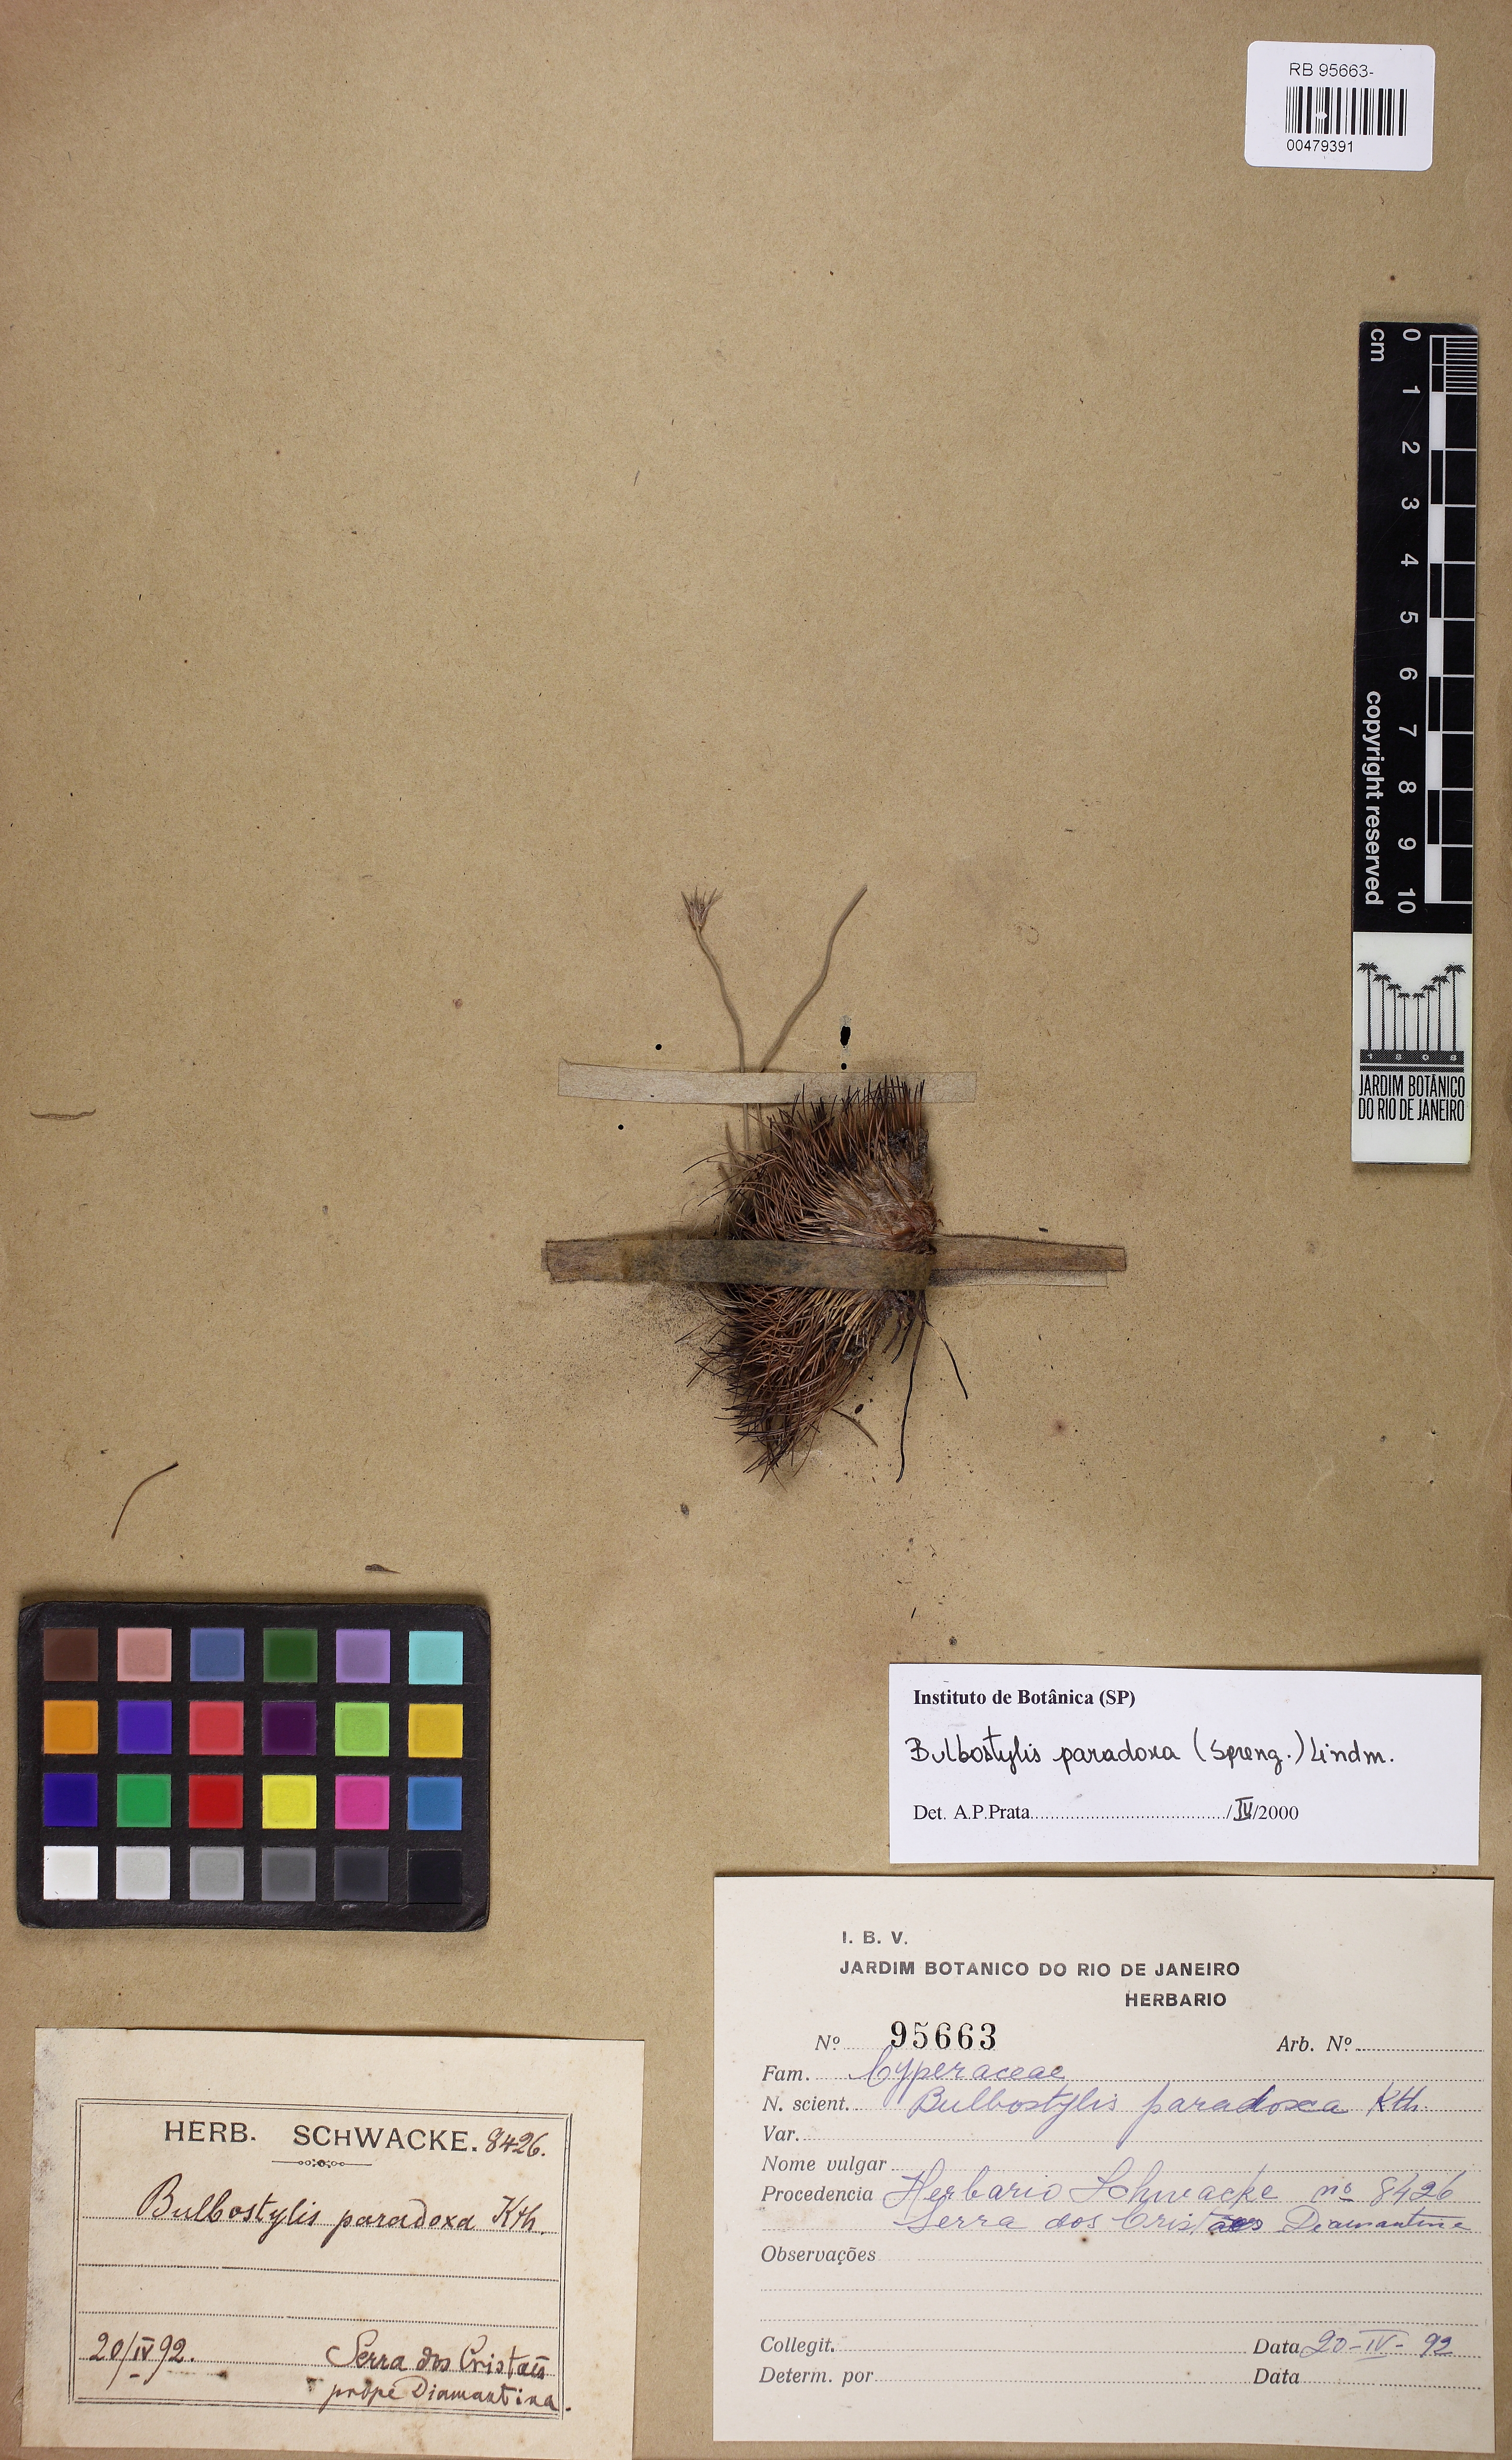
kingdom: Plantae
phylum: Tracheophyta
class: Liliopsida
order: Poales
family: Cyperaceae
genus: Bulbostylis
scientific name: Bulbostylis paradoxa
